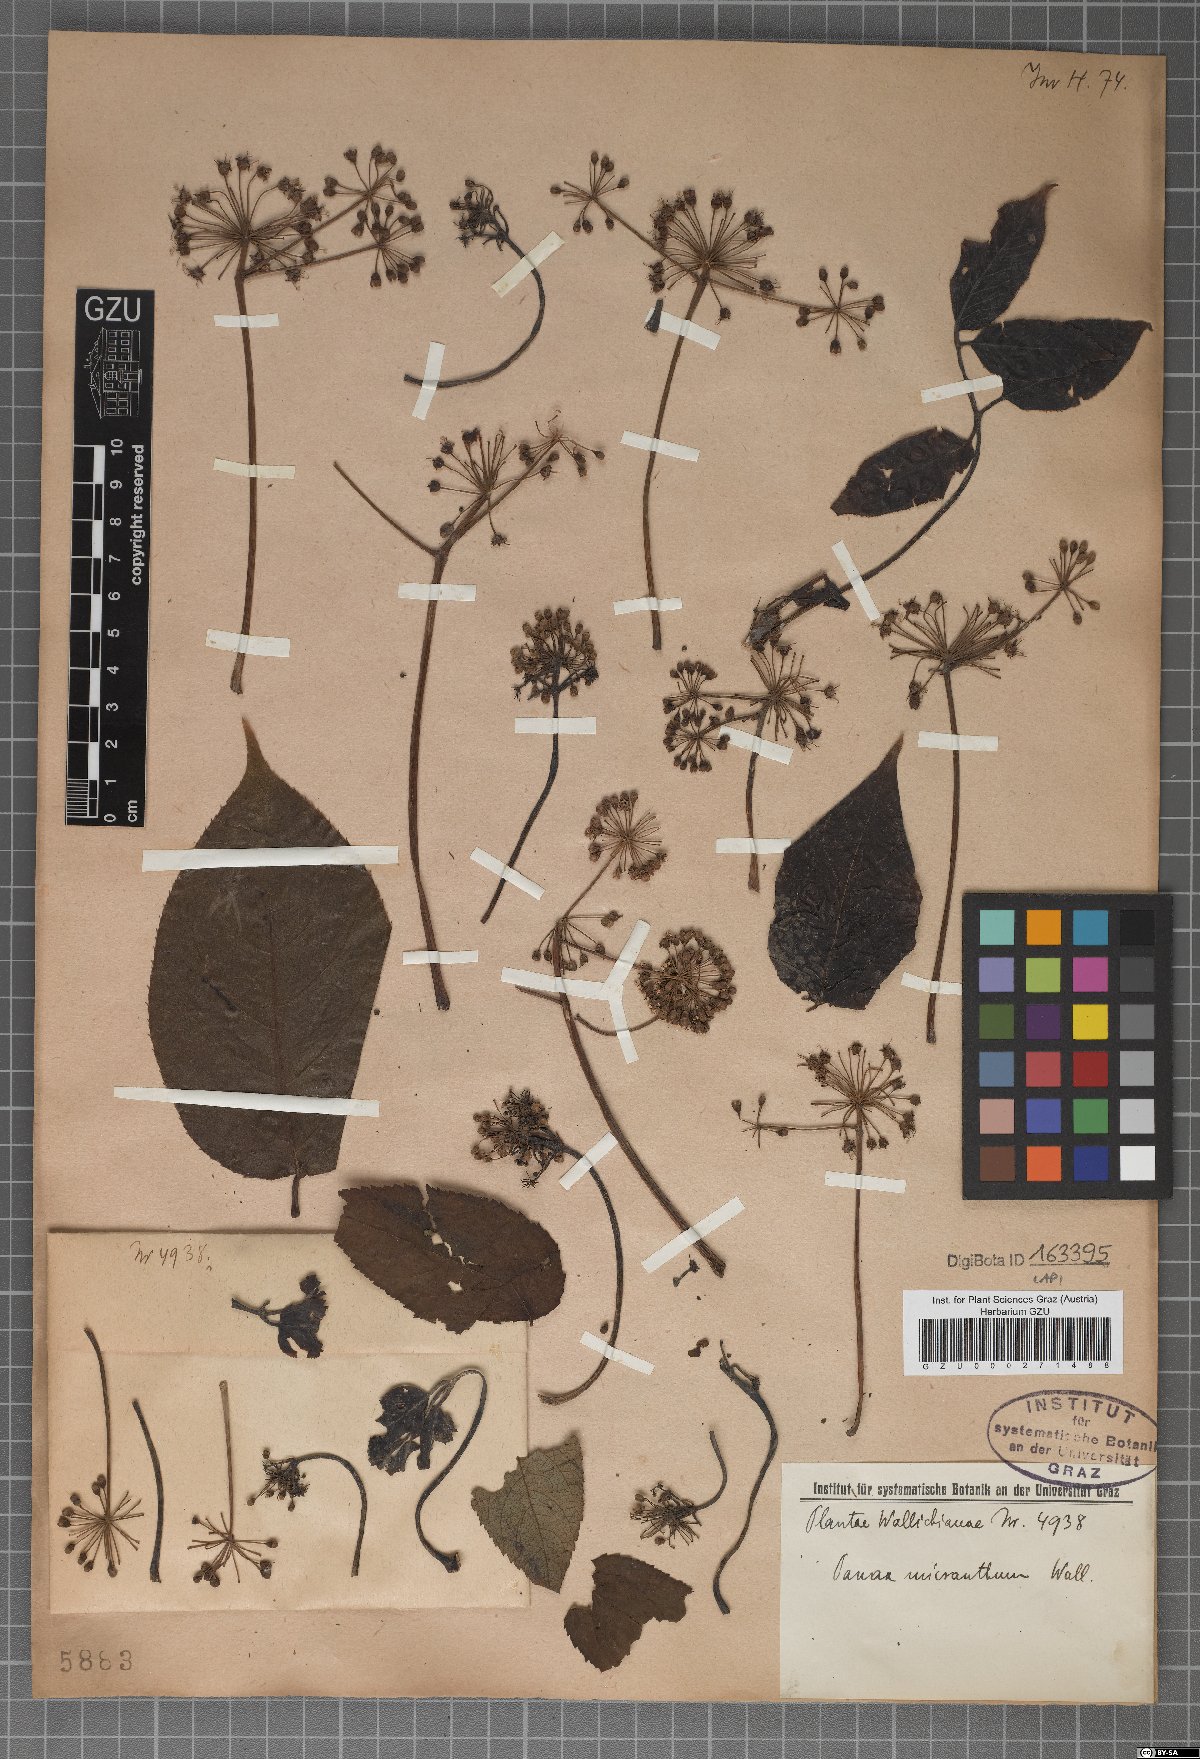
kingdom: Plantae
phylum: Tracheophyta
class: Magnoliopsida
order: Vitales
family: Vitaceae
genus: Vitis
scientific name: Vitis micrantha
